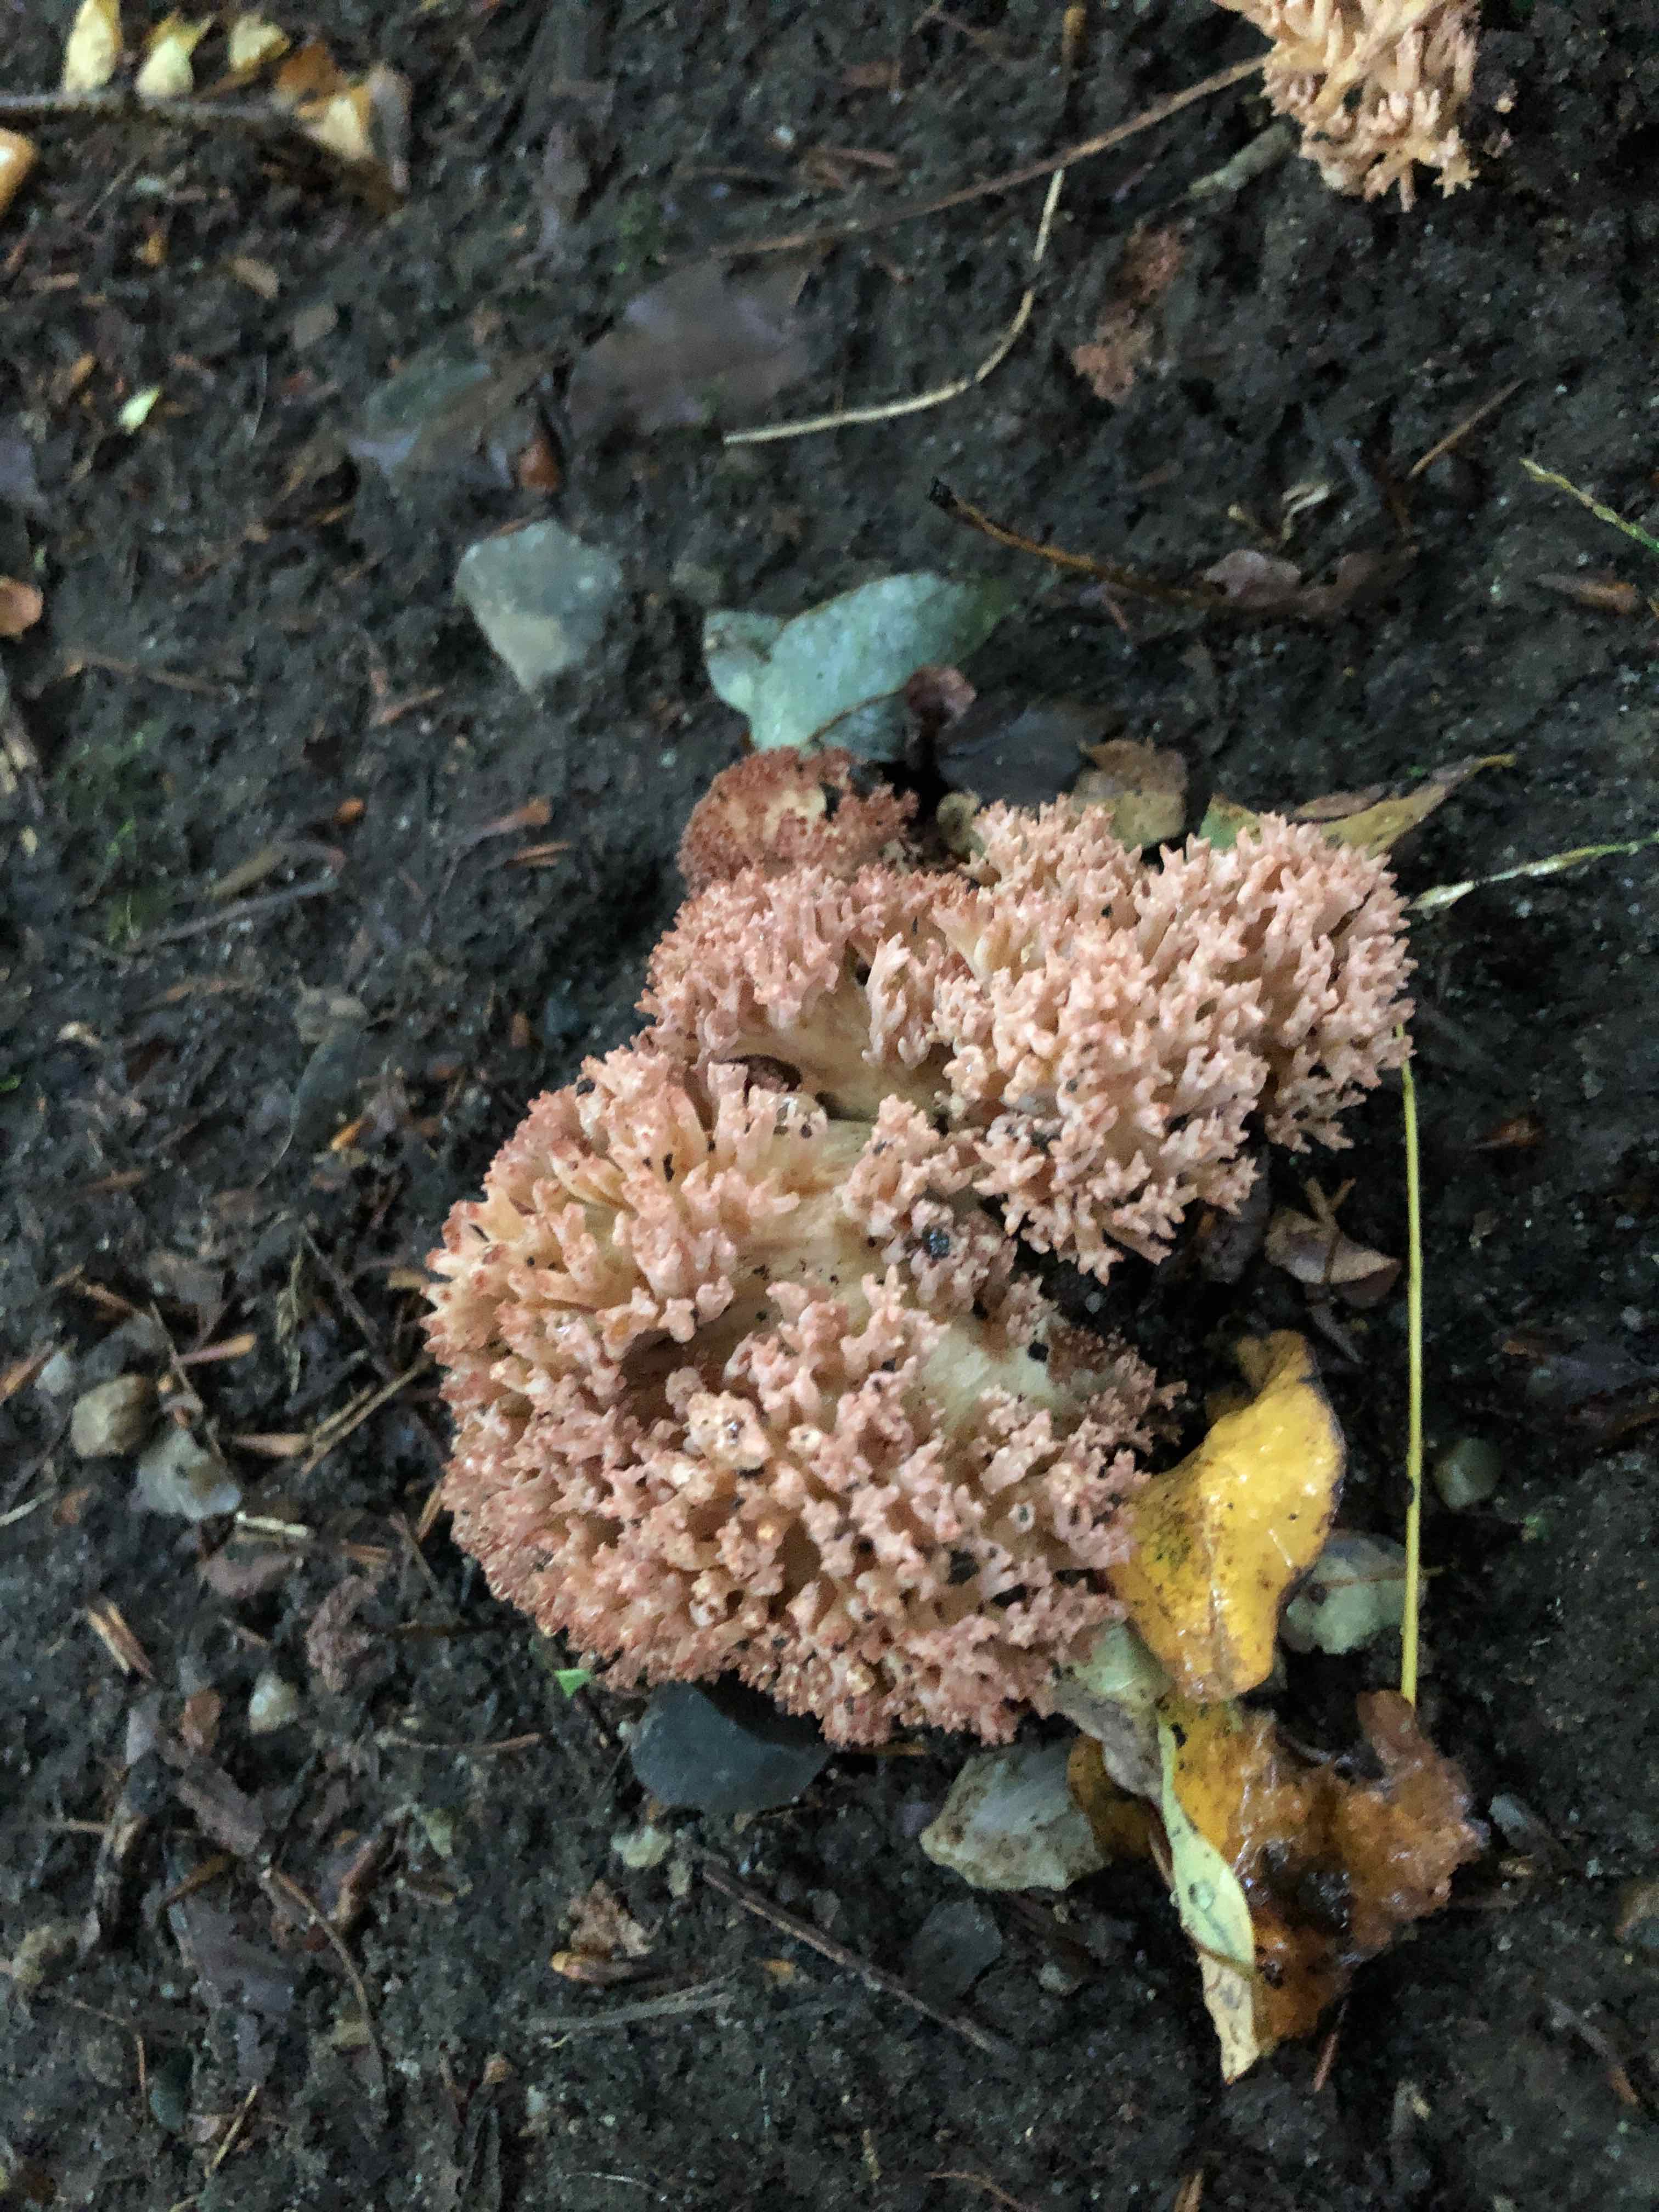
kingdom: Fungi
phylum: Basidiomycota
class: Agaricomycetes
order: Gomphales
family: Gomphaceae
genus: Ramaria
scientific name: Ramaria botrytis
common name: drue-koralsvamp
